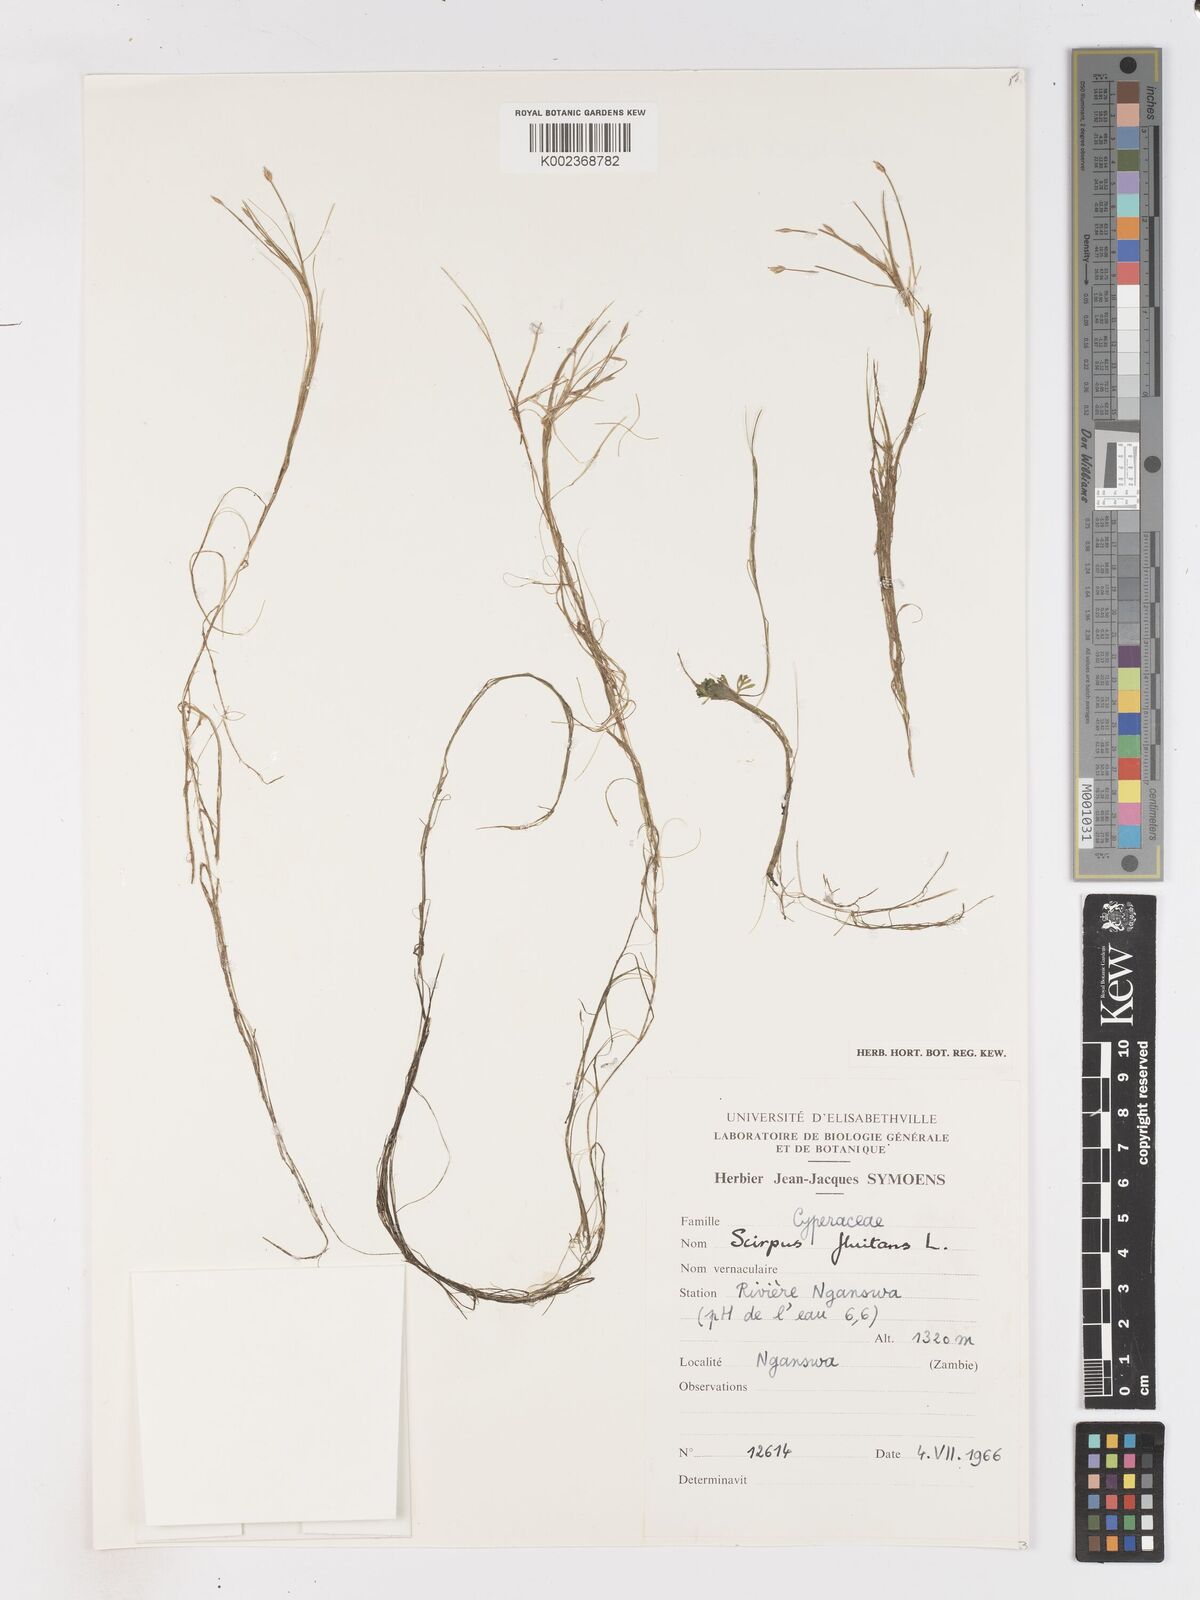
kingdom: Plantae
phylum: Tracheophyta
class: Liliopsida
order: Poales
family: Cyperaceae
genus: Isolepis
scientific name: Isolepis fluitans
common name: Floating club-rush
